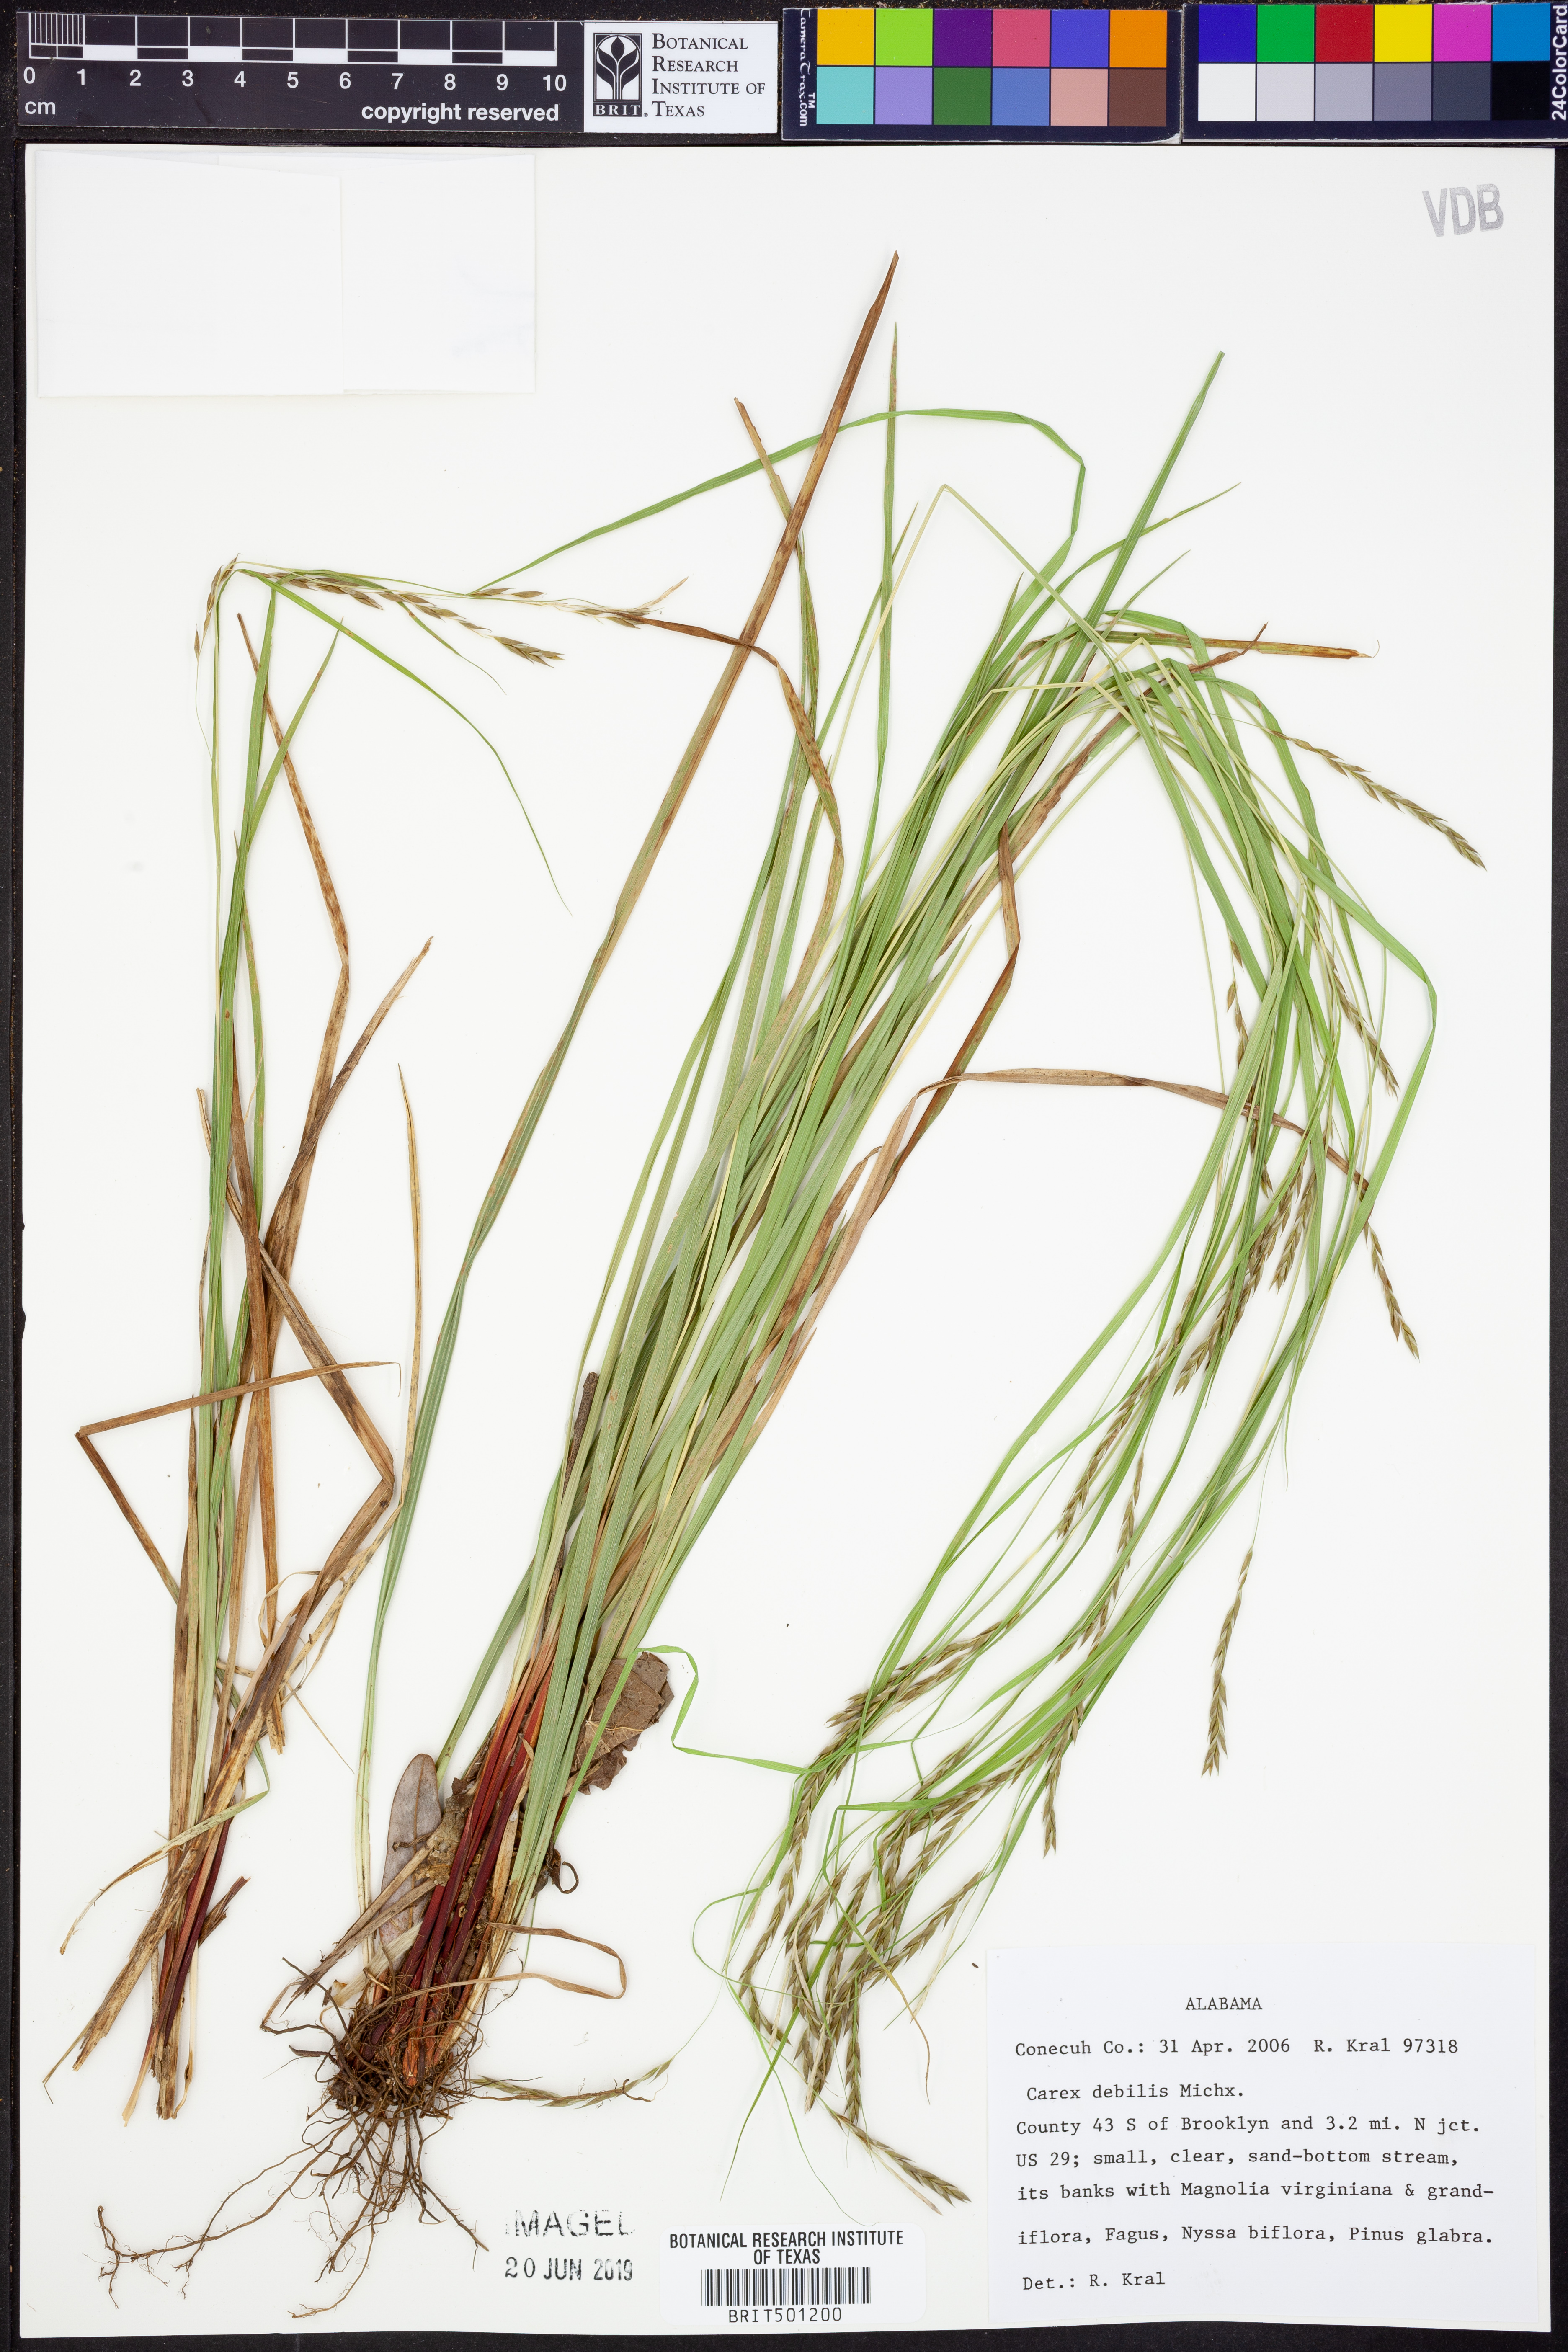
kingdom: Plantae
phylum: Tracheophyta
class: Liliopsida
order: Poales
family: Cyperaceae
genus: Carex
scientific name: Carex debilis
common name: White-edge sedge
